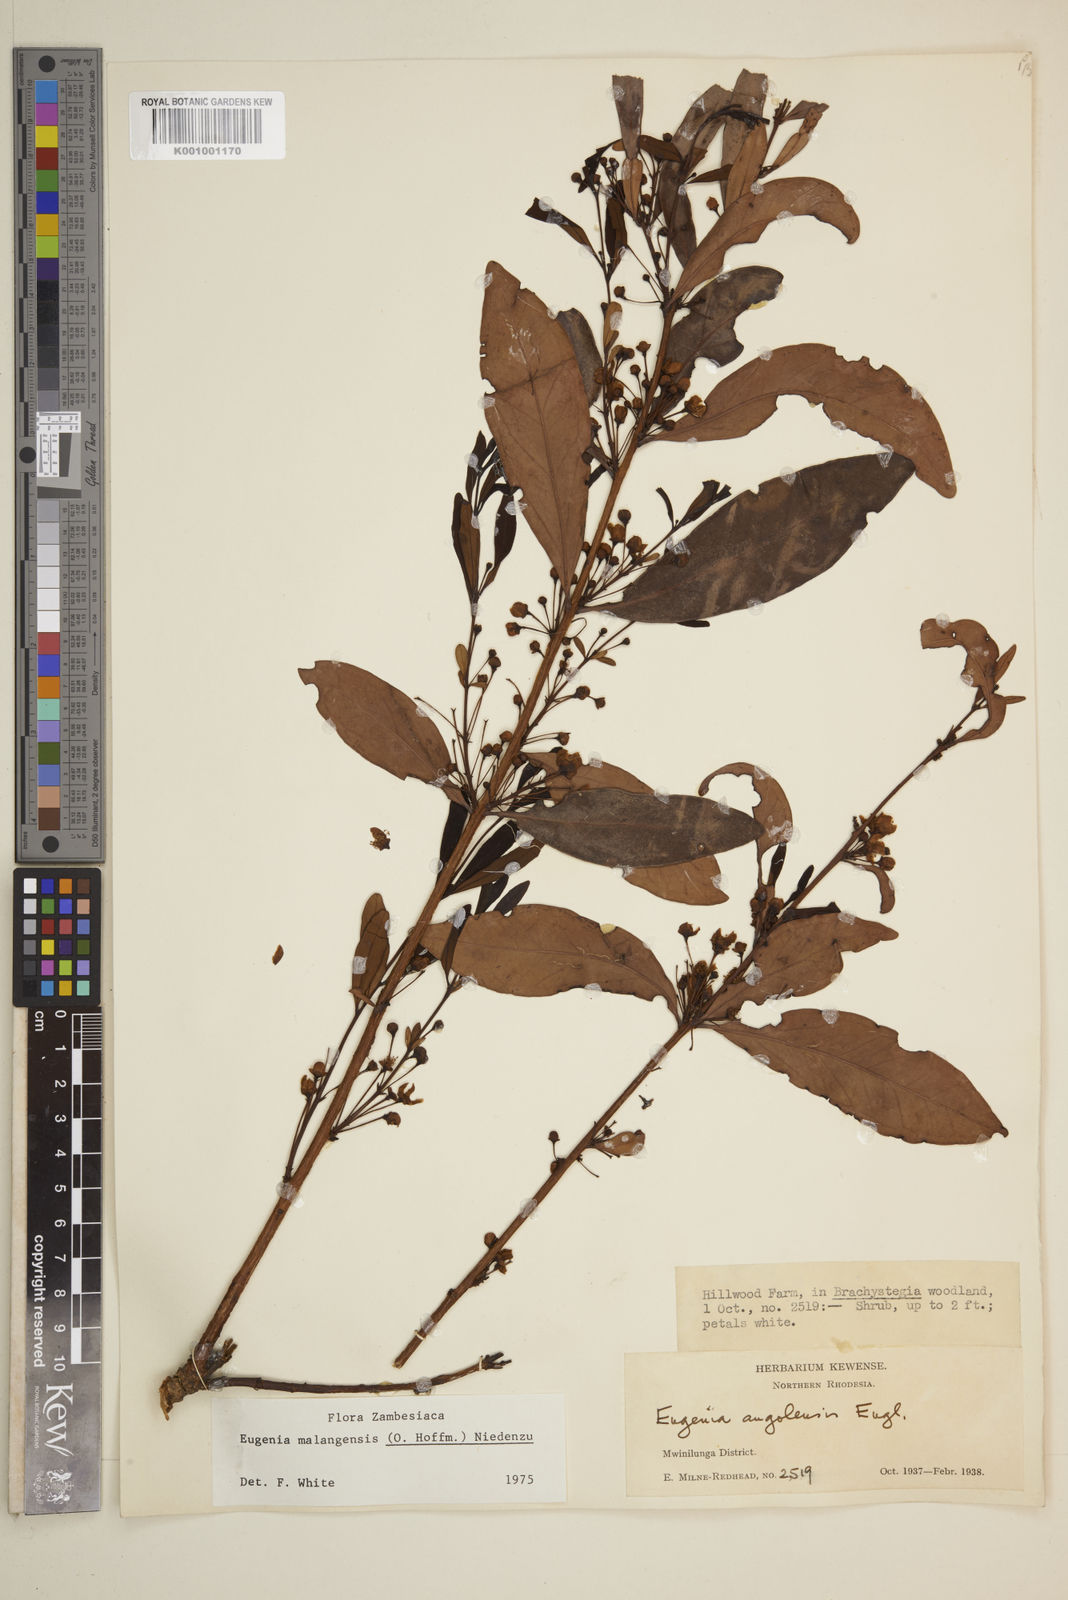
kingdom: Plantae
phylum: Tracheophyta
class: Magnoliopsida
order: Myrtales
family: Myrtaceae
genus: Eugenia
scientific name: Eugenia malangensis
